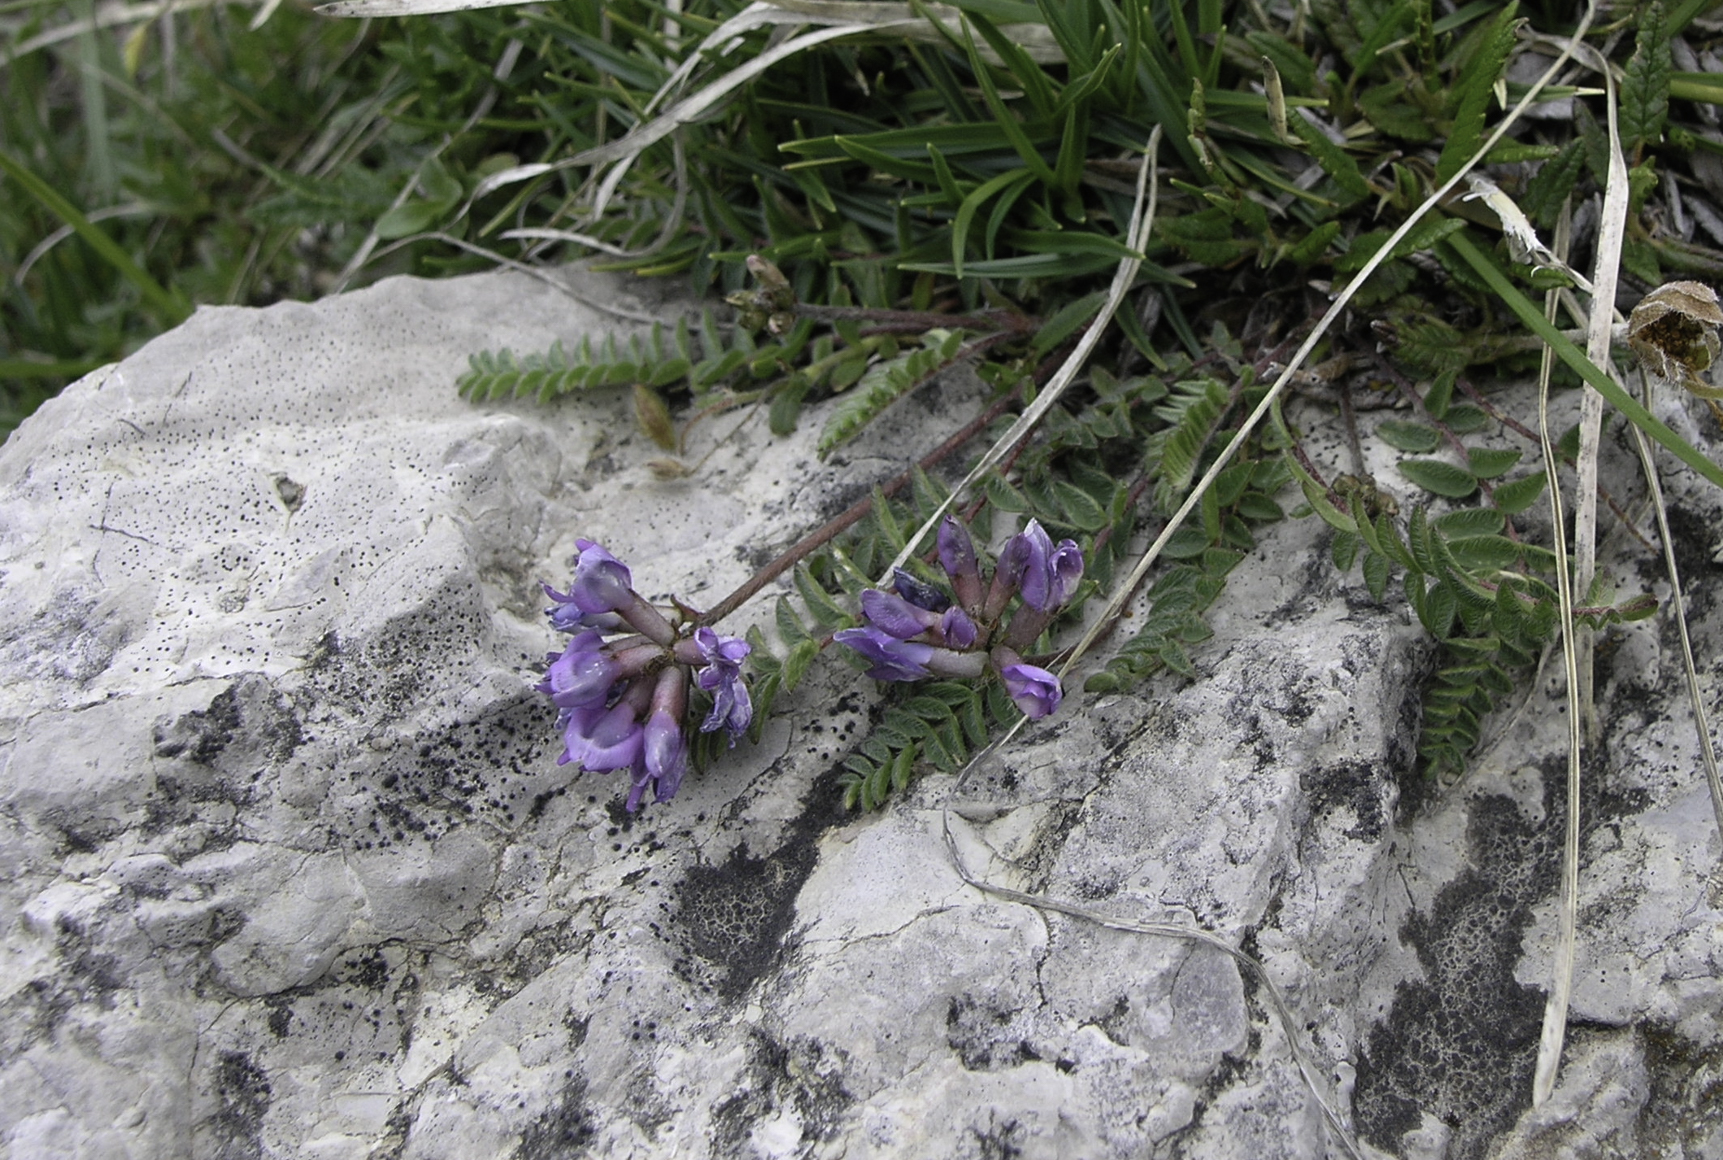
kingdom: Plantae
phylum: Tracheophyta
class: Magnoliopsida
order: Fabales
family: Fabaceae
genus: Oxytropis
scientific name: Oxytropis montana
